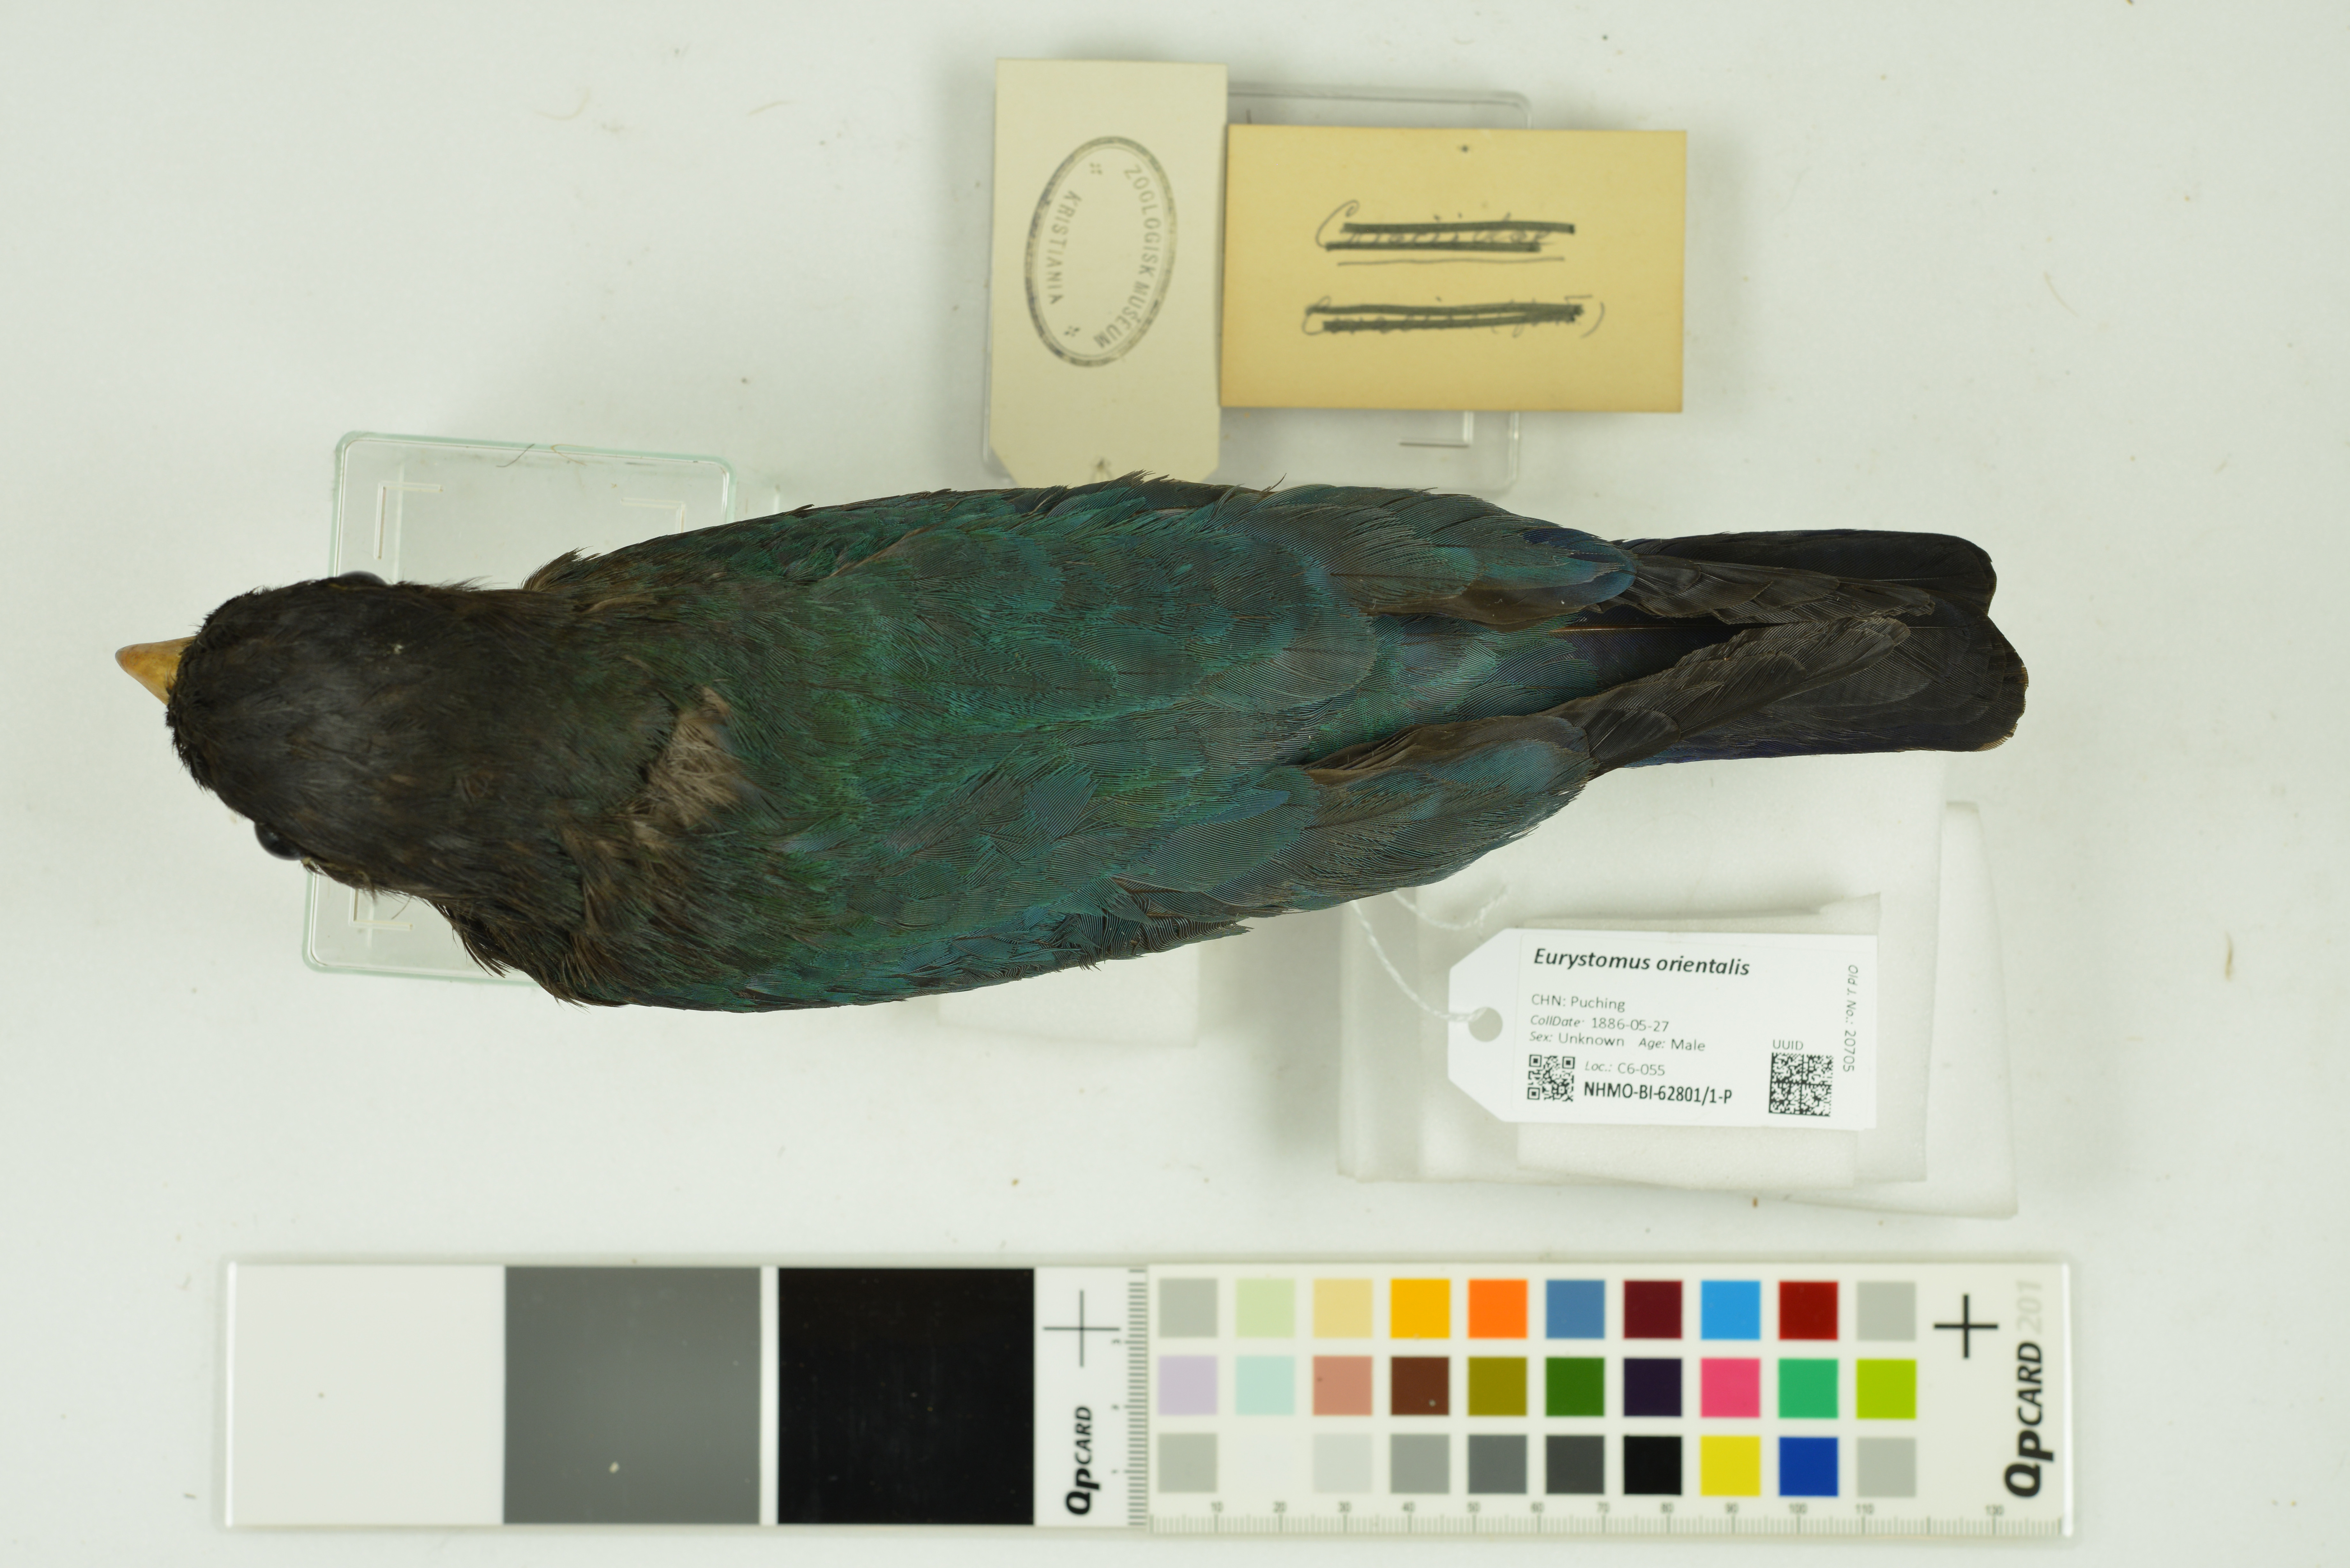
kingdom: Animalia
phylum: Chordata
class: Aves
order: Coraciiformes
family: Coraciidae
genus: Eurystomus
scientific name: Eurystomus orientalis
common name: Oriental dollarbird
